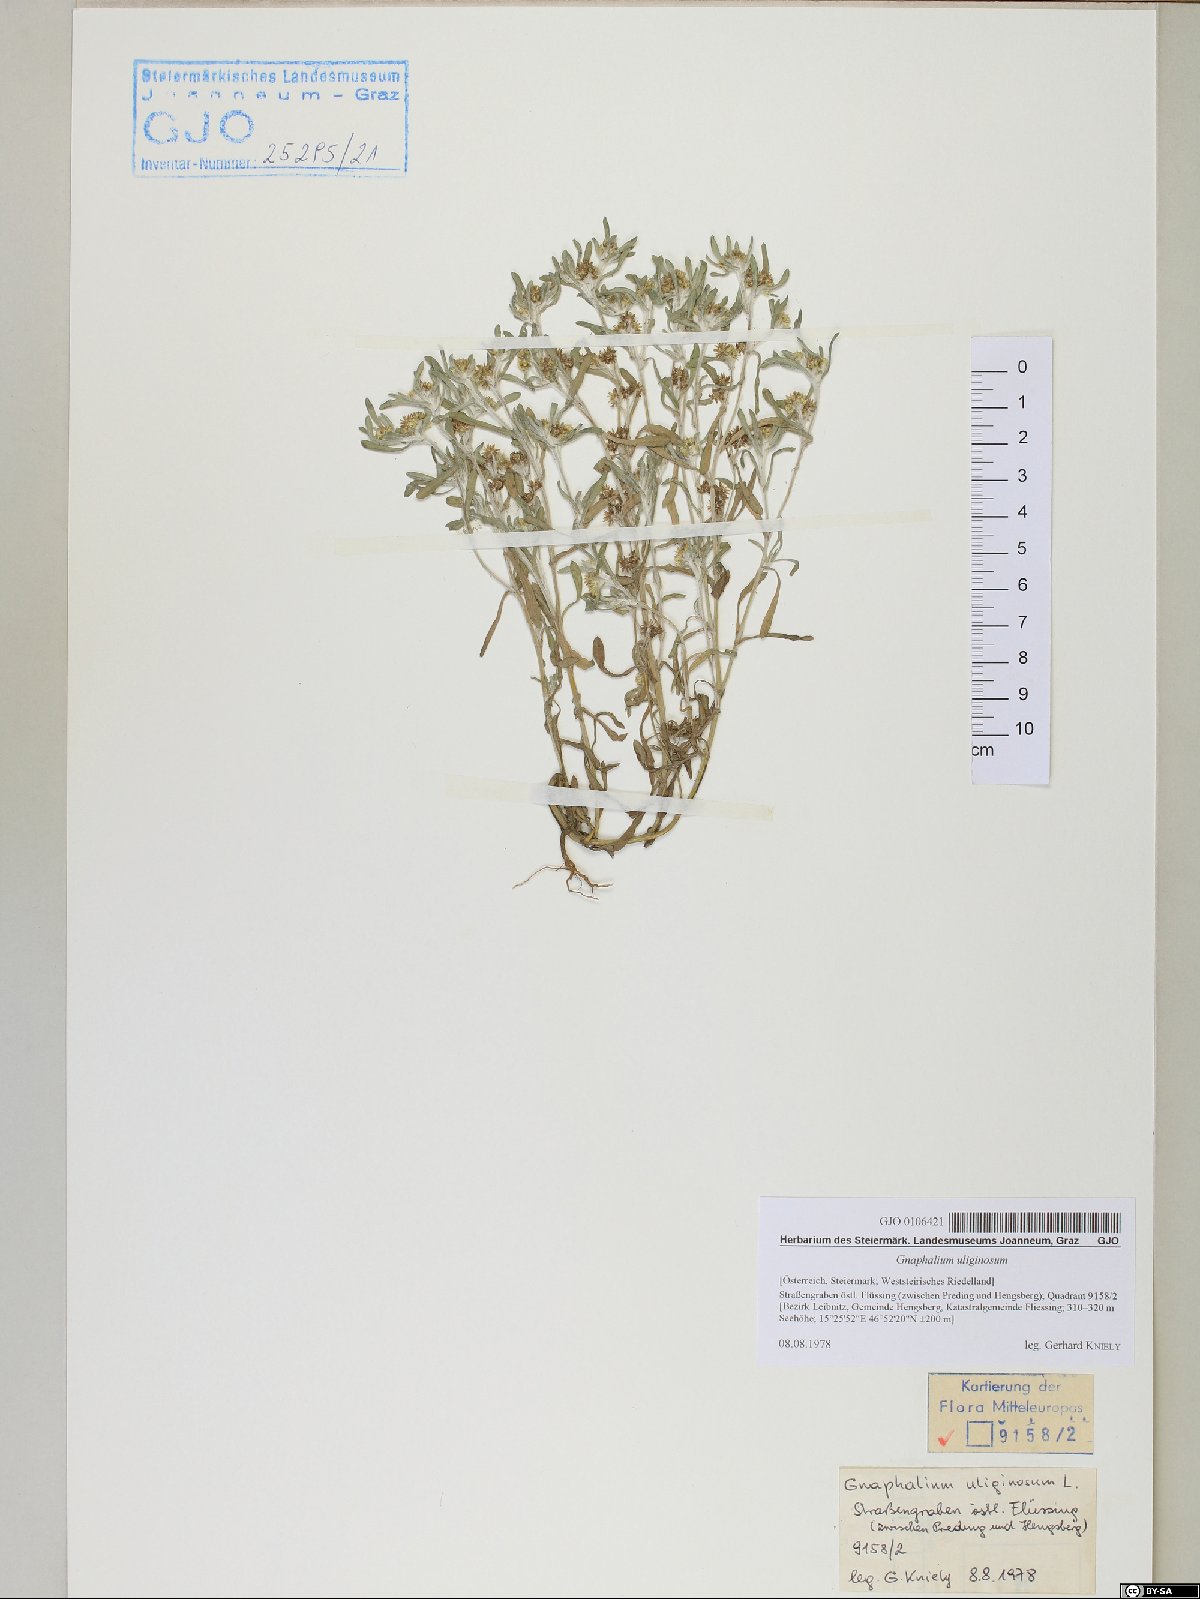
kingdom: Plantae
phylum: Tracheophyta
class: Magnoliopsida
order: Asterales
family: Asteraceae
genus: Gnaphalium
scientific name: Gnaphalium uliginosum
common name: Marsh cudweed
